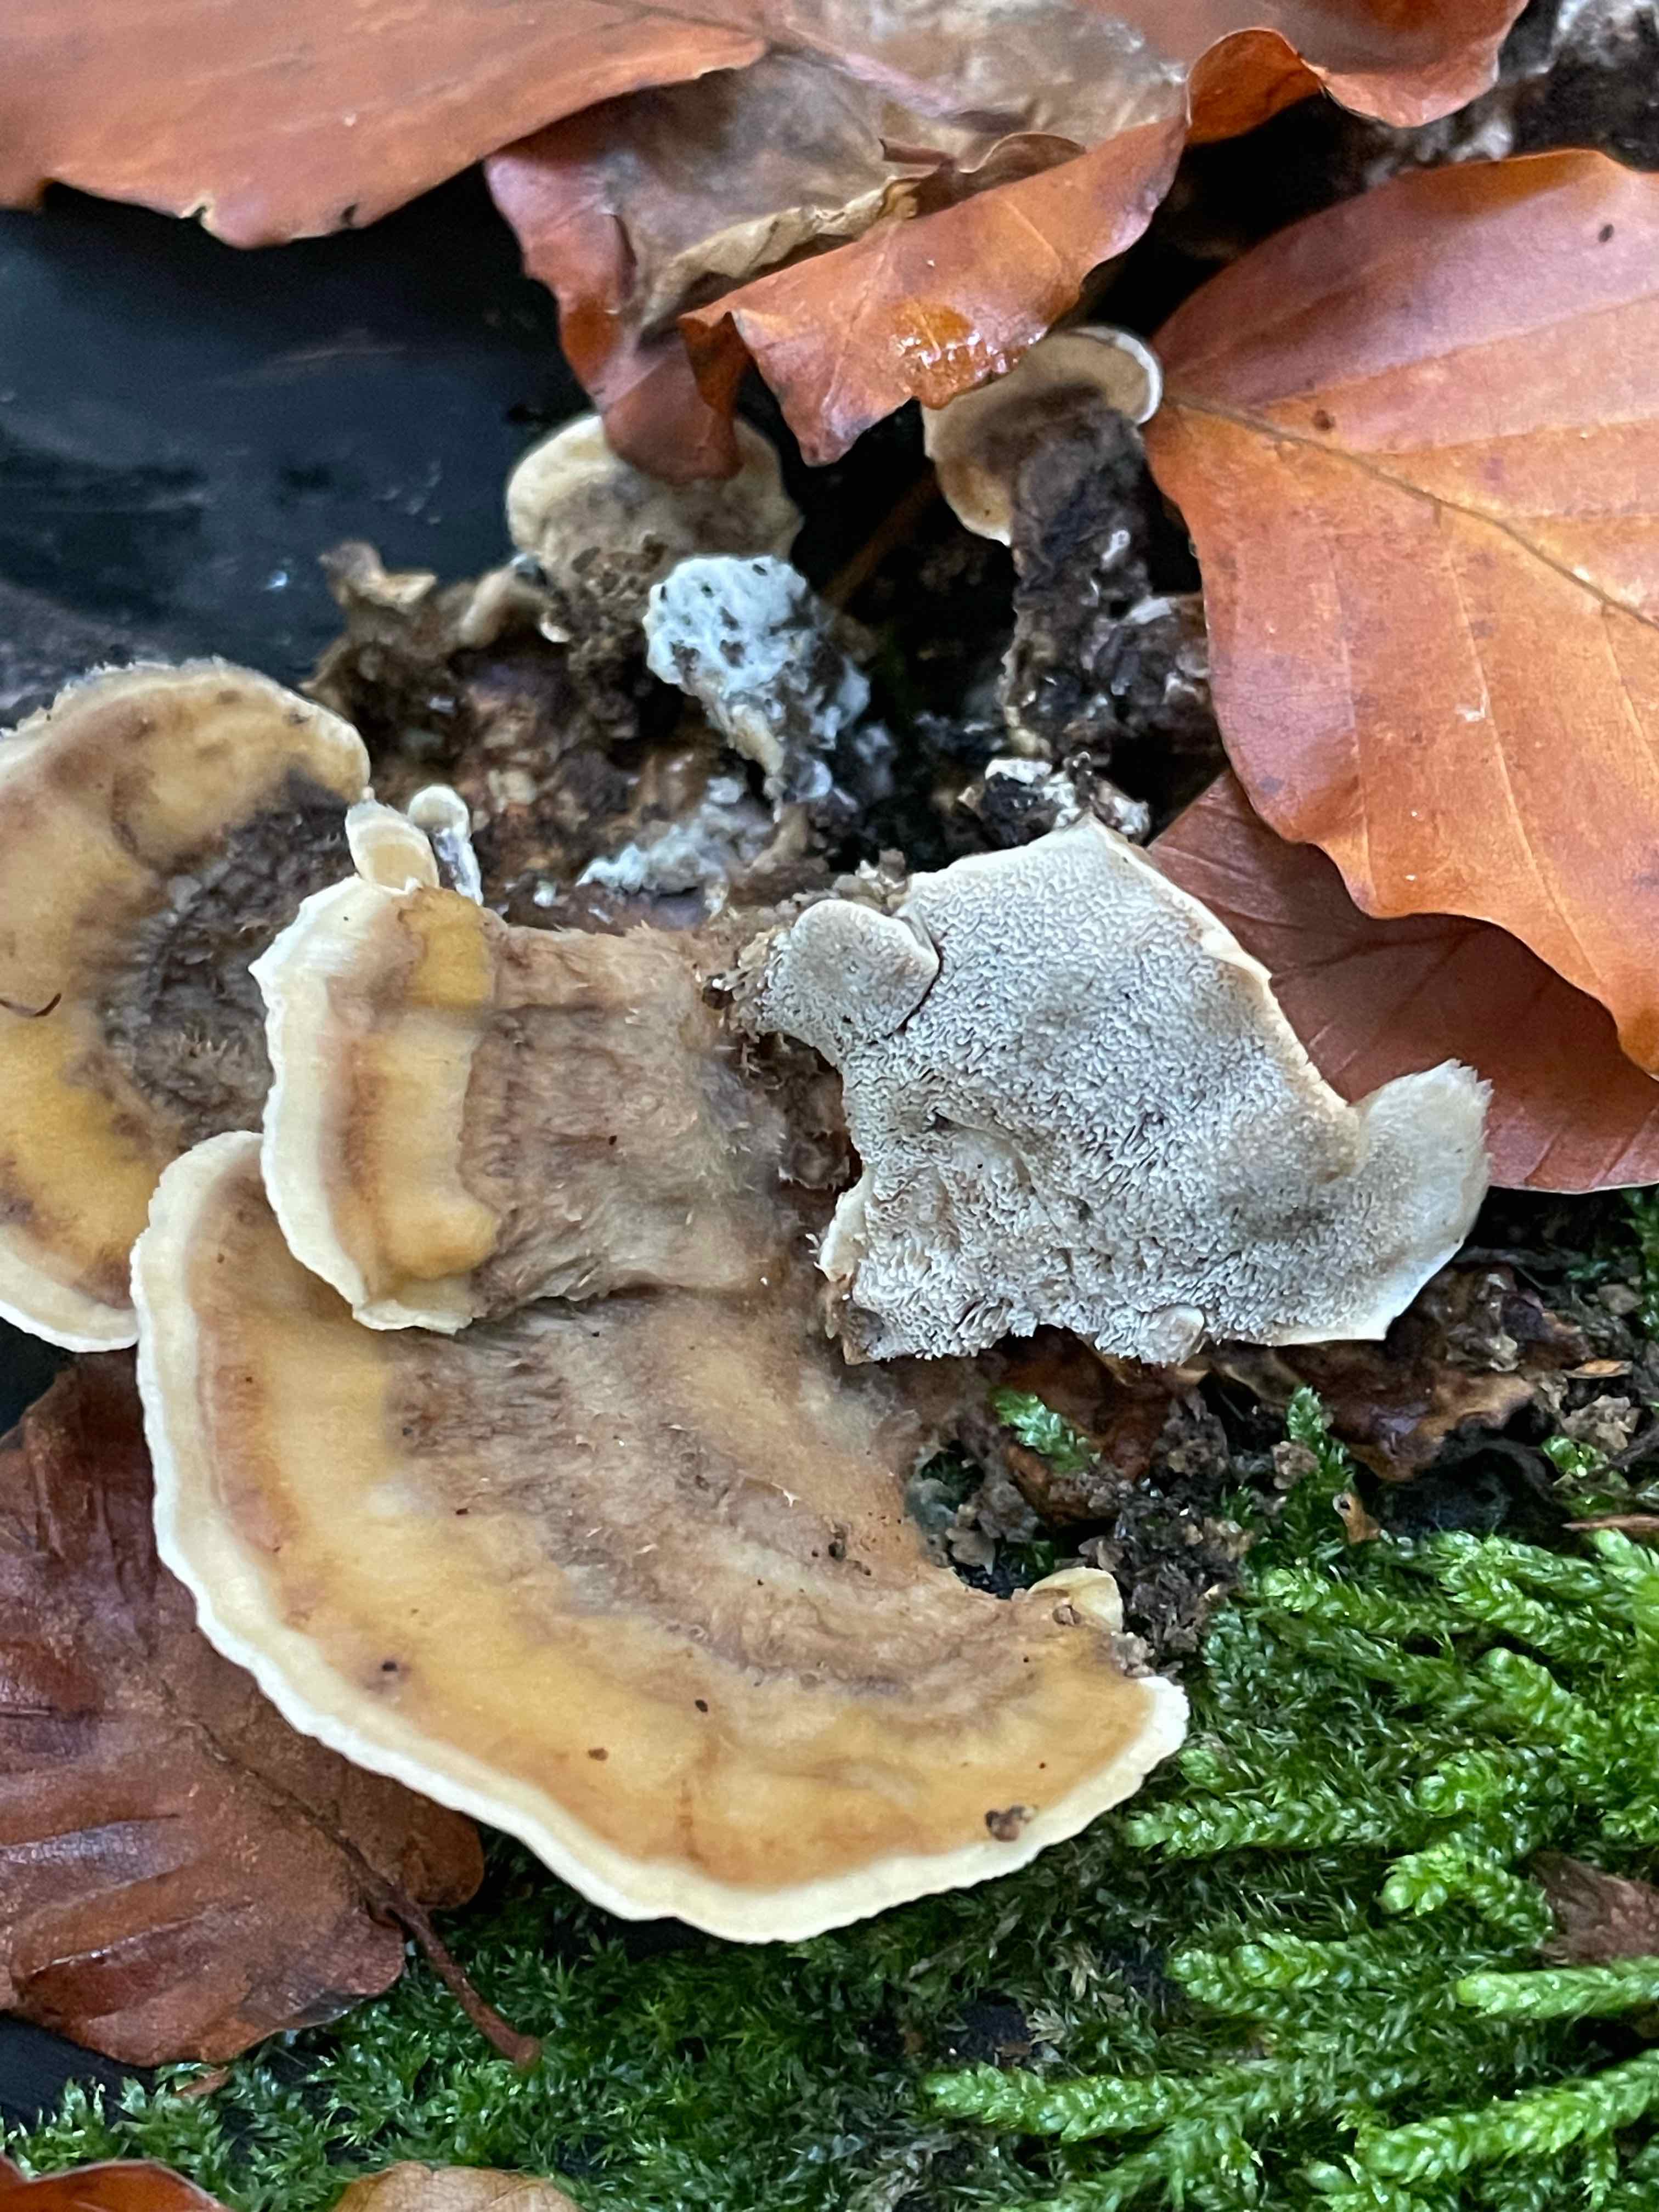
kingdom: Fungi
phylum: Basidiomycota
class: Agaricomycetes
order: Polyporales
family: Phanerochaetaceae
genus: Bjerkandera
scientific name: Bjerkandera adusta
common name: sveden sodporesvamp
